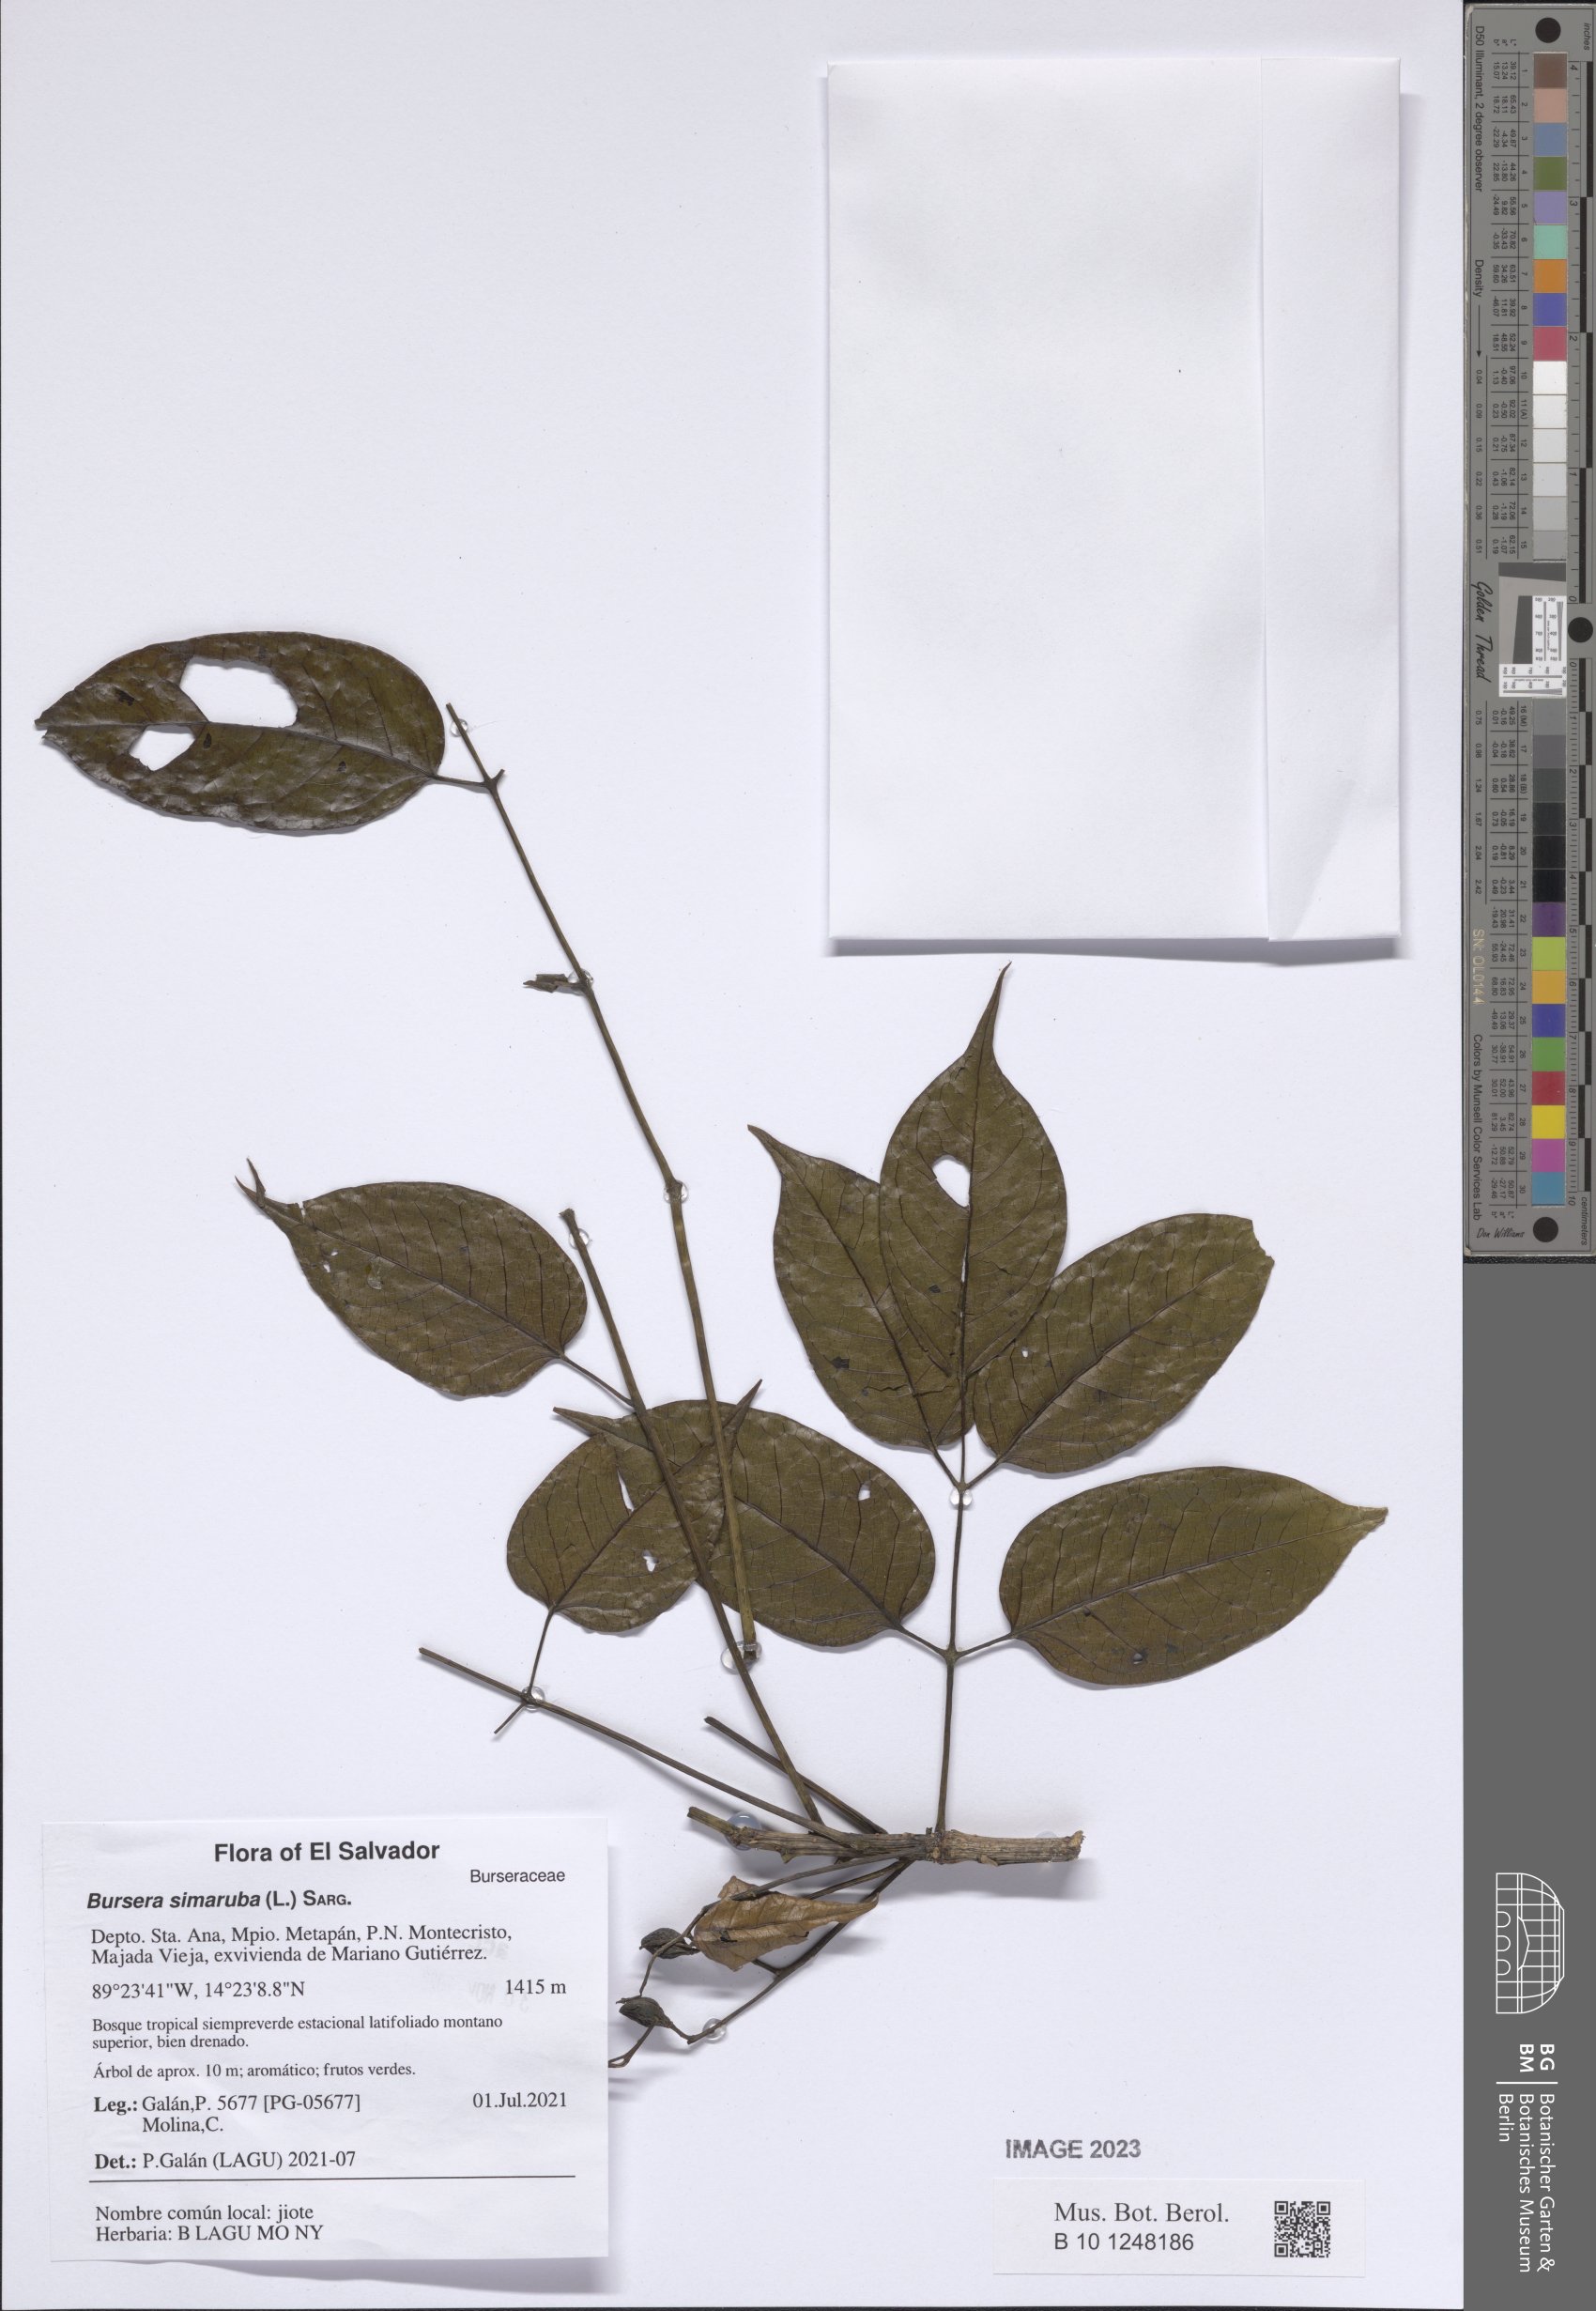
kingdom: Plantae
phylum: Tracheophyta
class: Magnoliopsida
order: Sapindales
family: Burseraceae
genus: Bursera
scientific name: Bursera simaruba
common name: Turpentine tree
